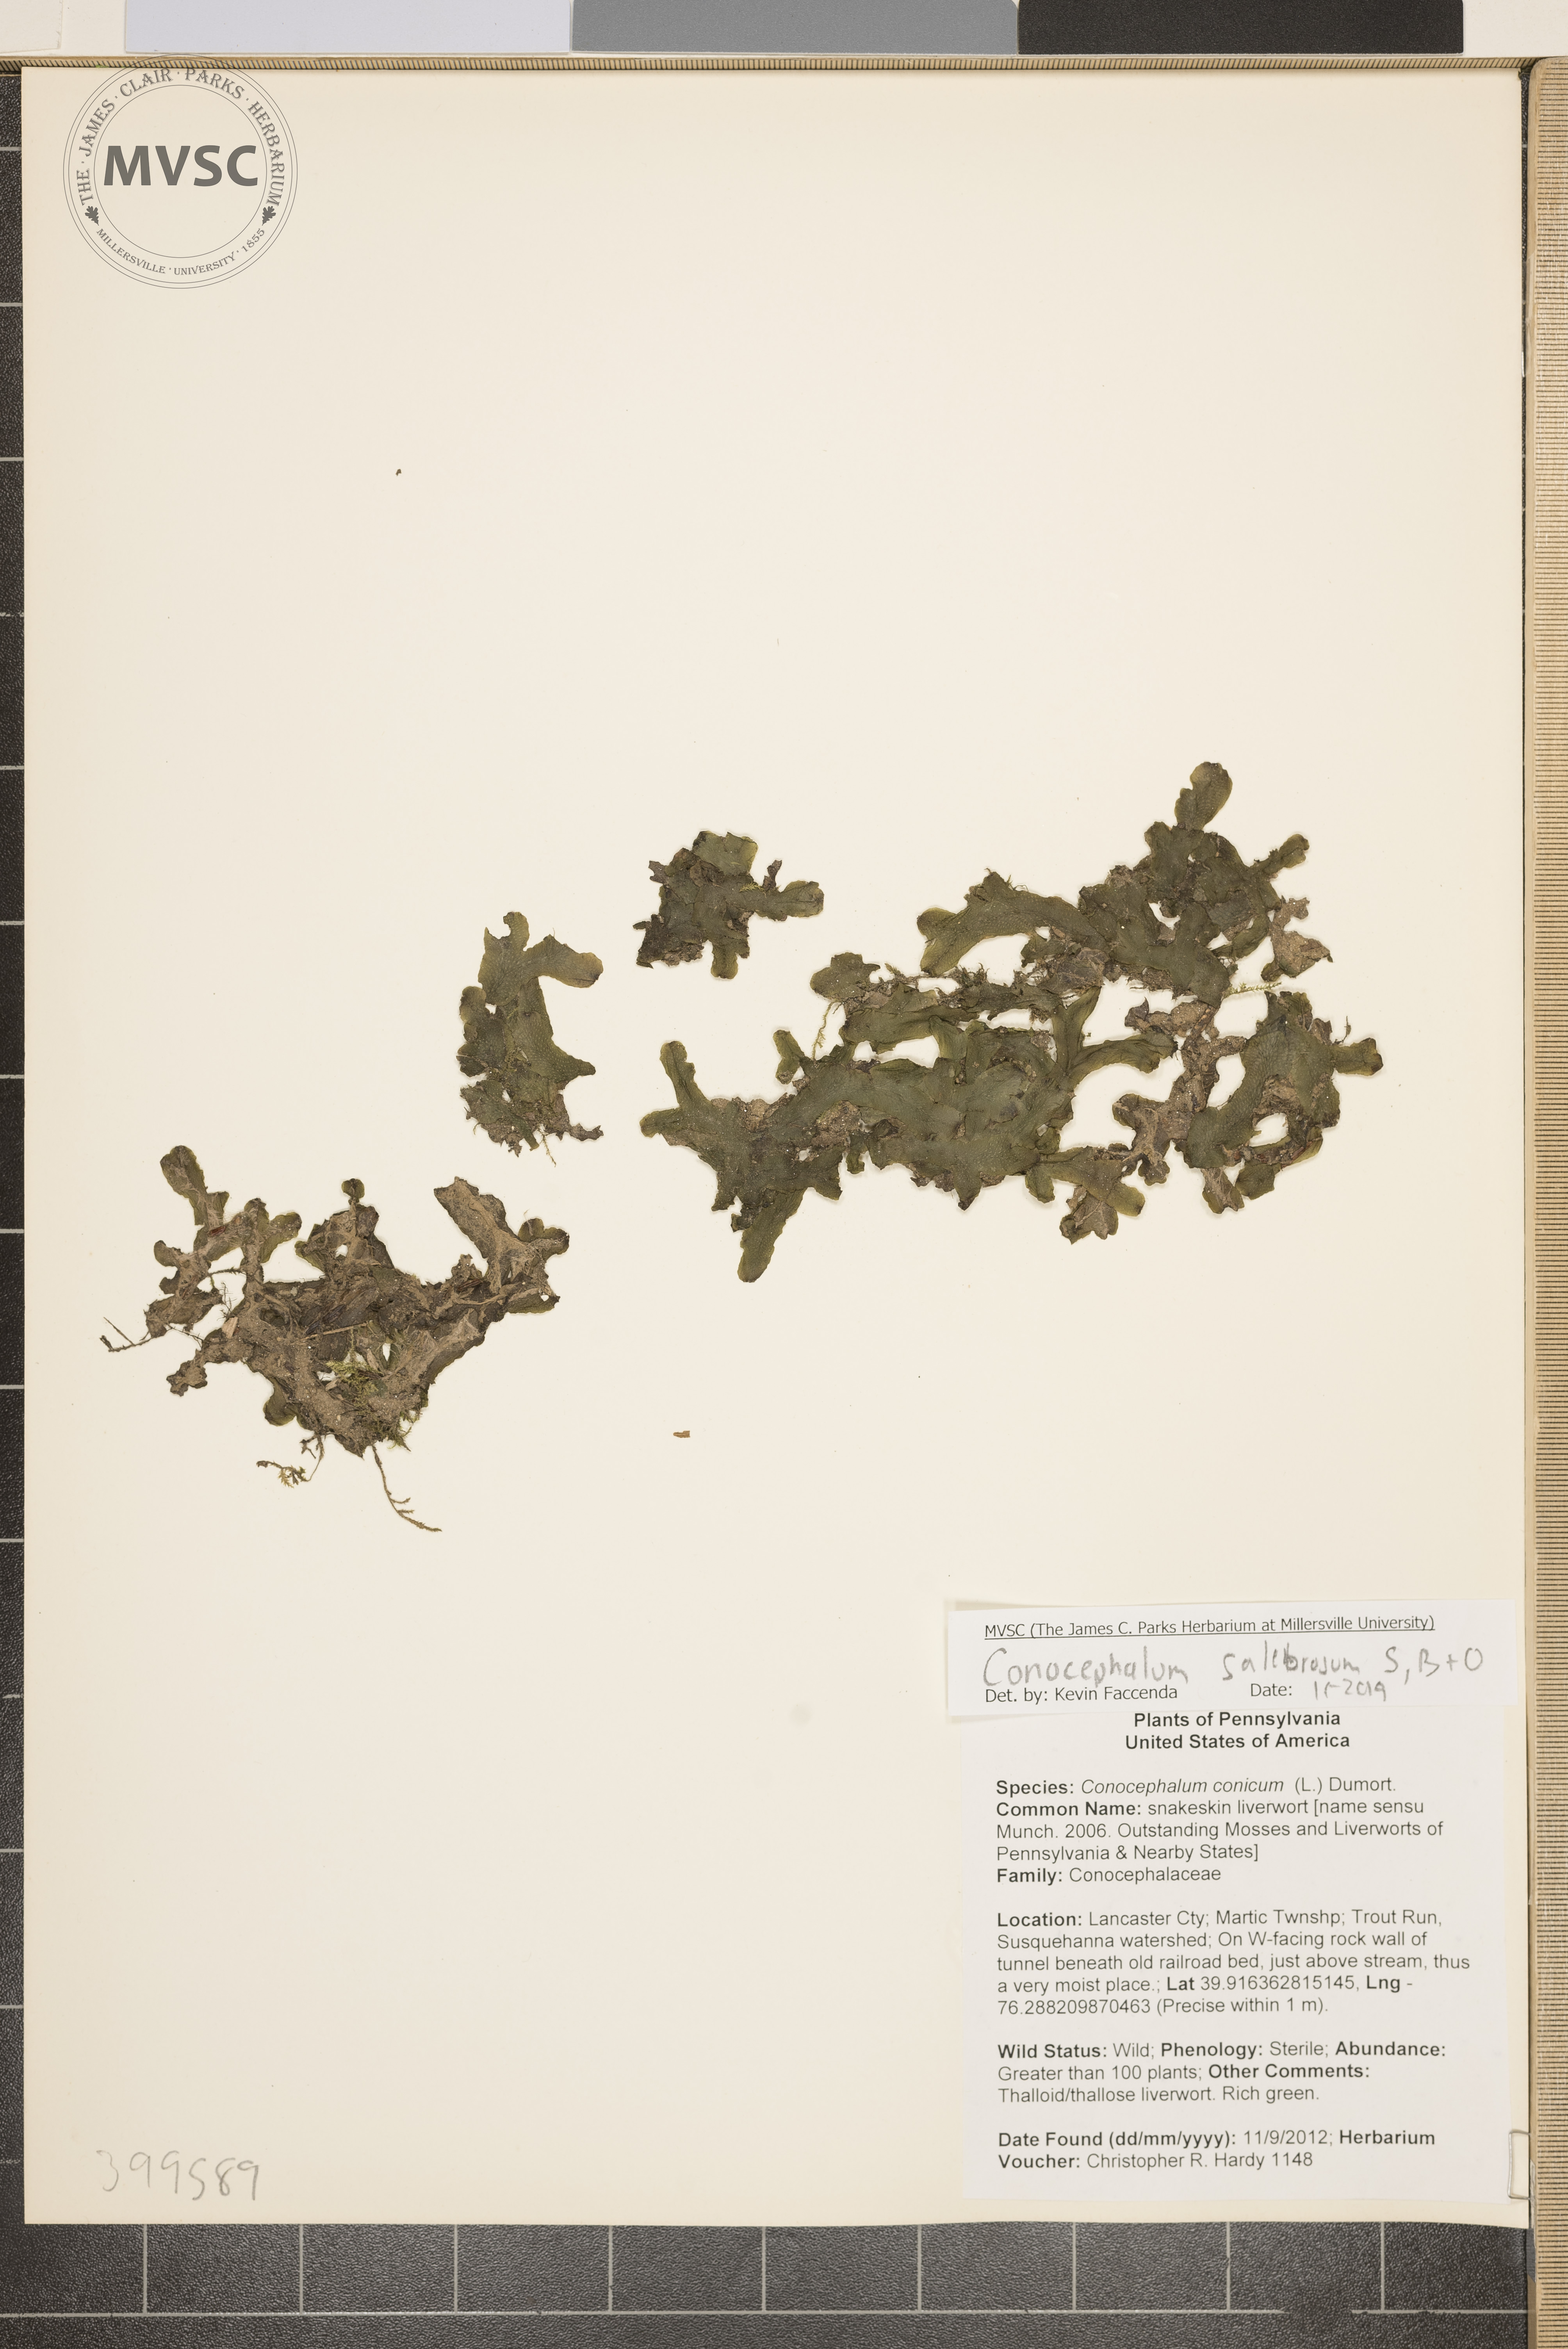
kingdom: Plantae
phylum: Marchantiophyta
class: Marchantiopsida
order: Marchantiales
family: Conocephalaceae
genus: Conocephalum
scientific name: Conocephalum salebrosum
